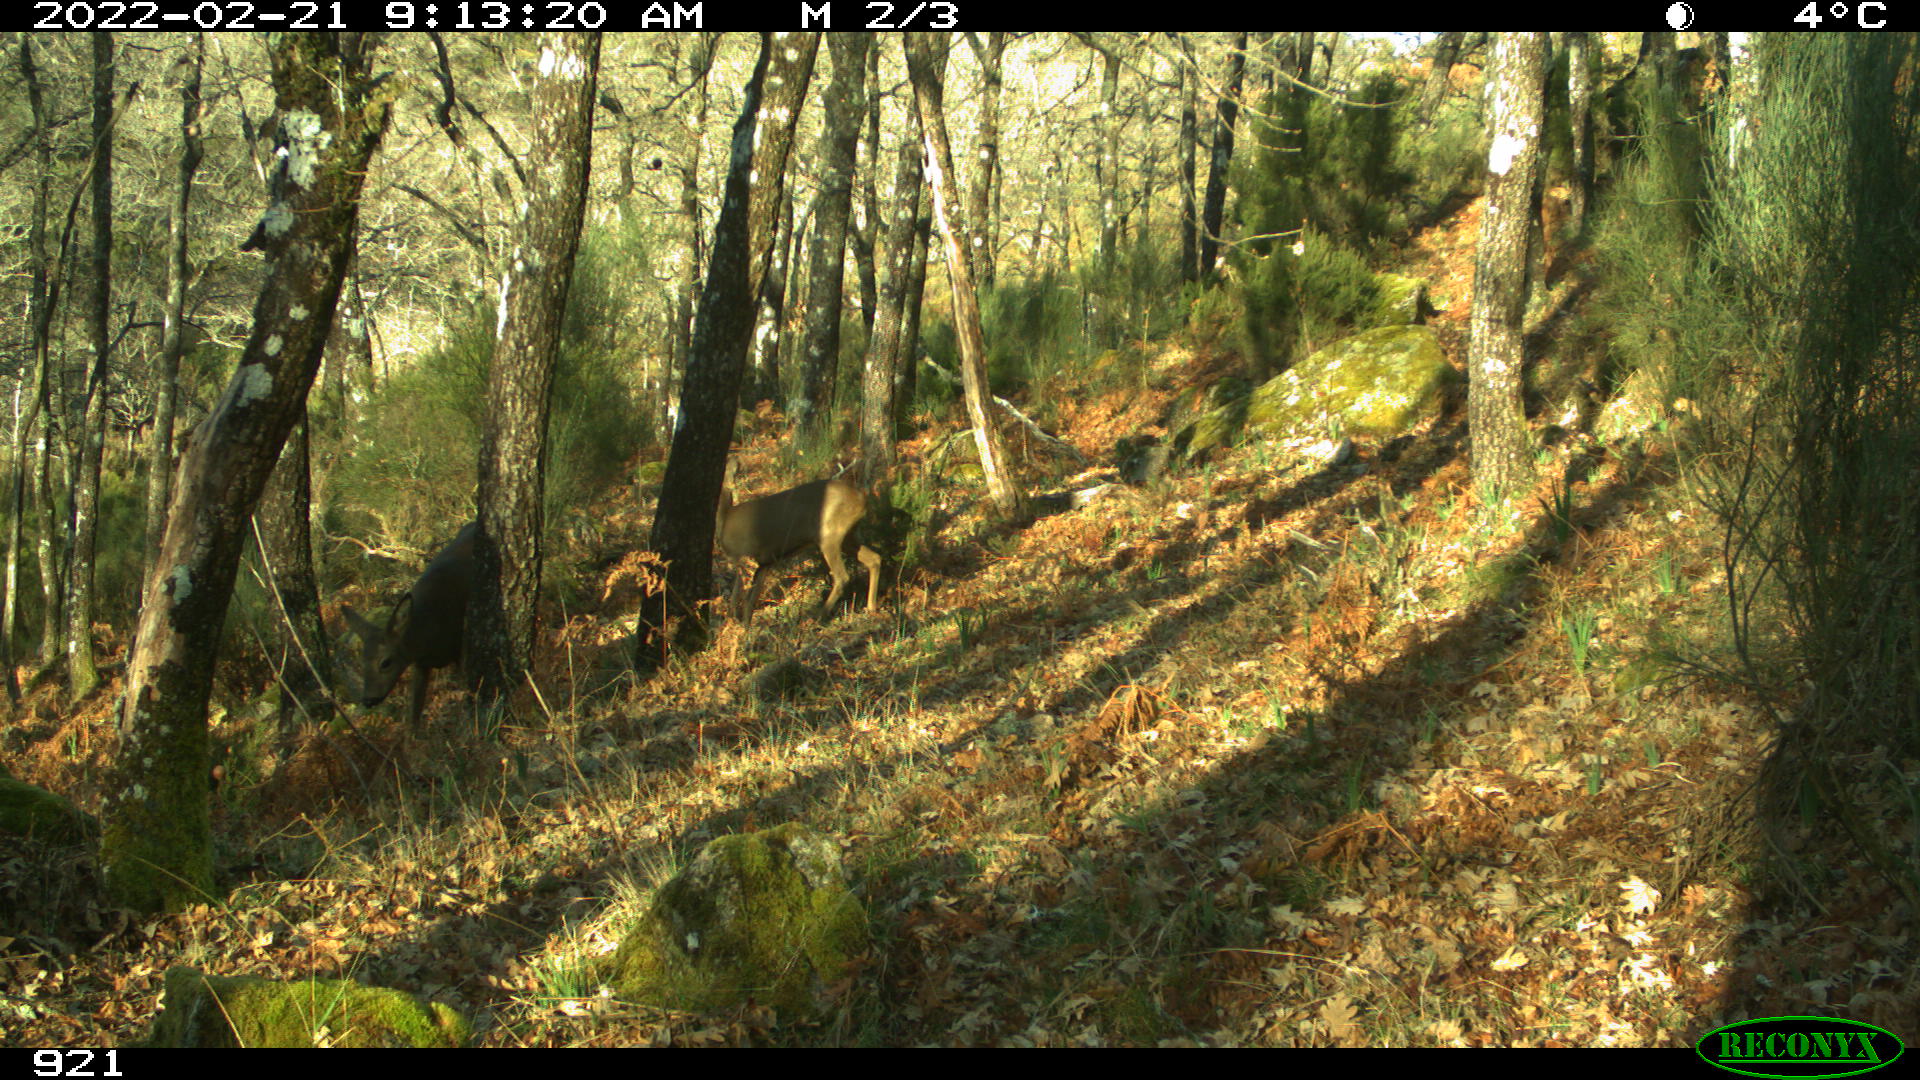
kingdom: Animalia
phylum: Chordata
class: Mammalia
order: Artiodactyla
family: Cervidae
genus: Capreolus
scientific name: Capreolus capreolus
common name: Western roe deer
